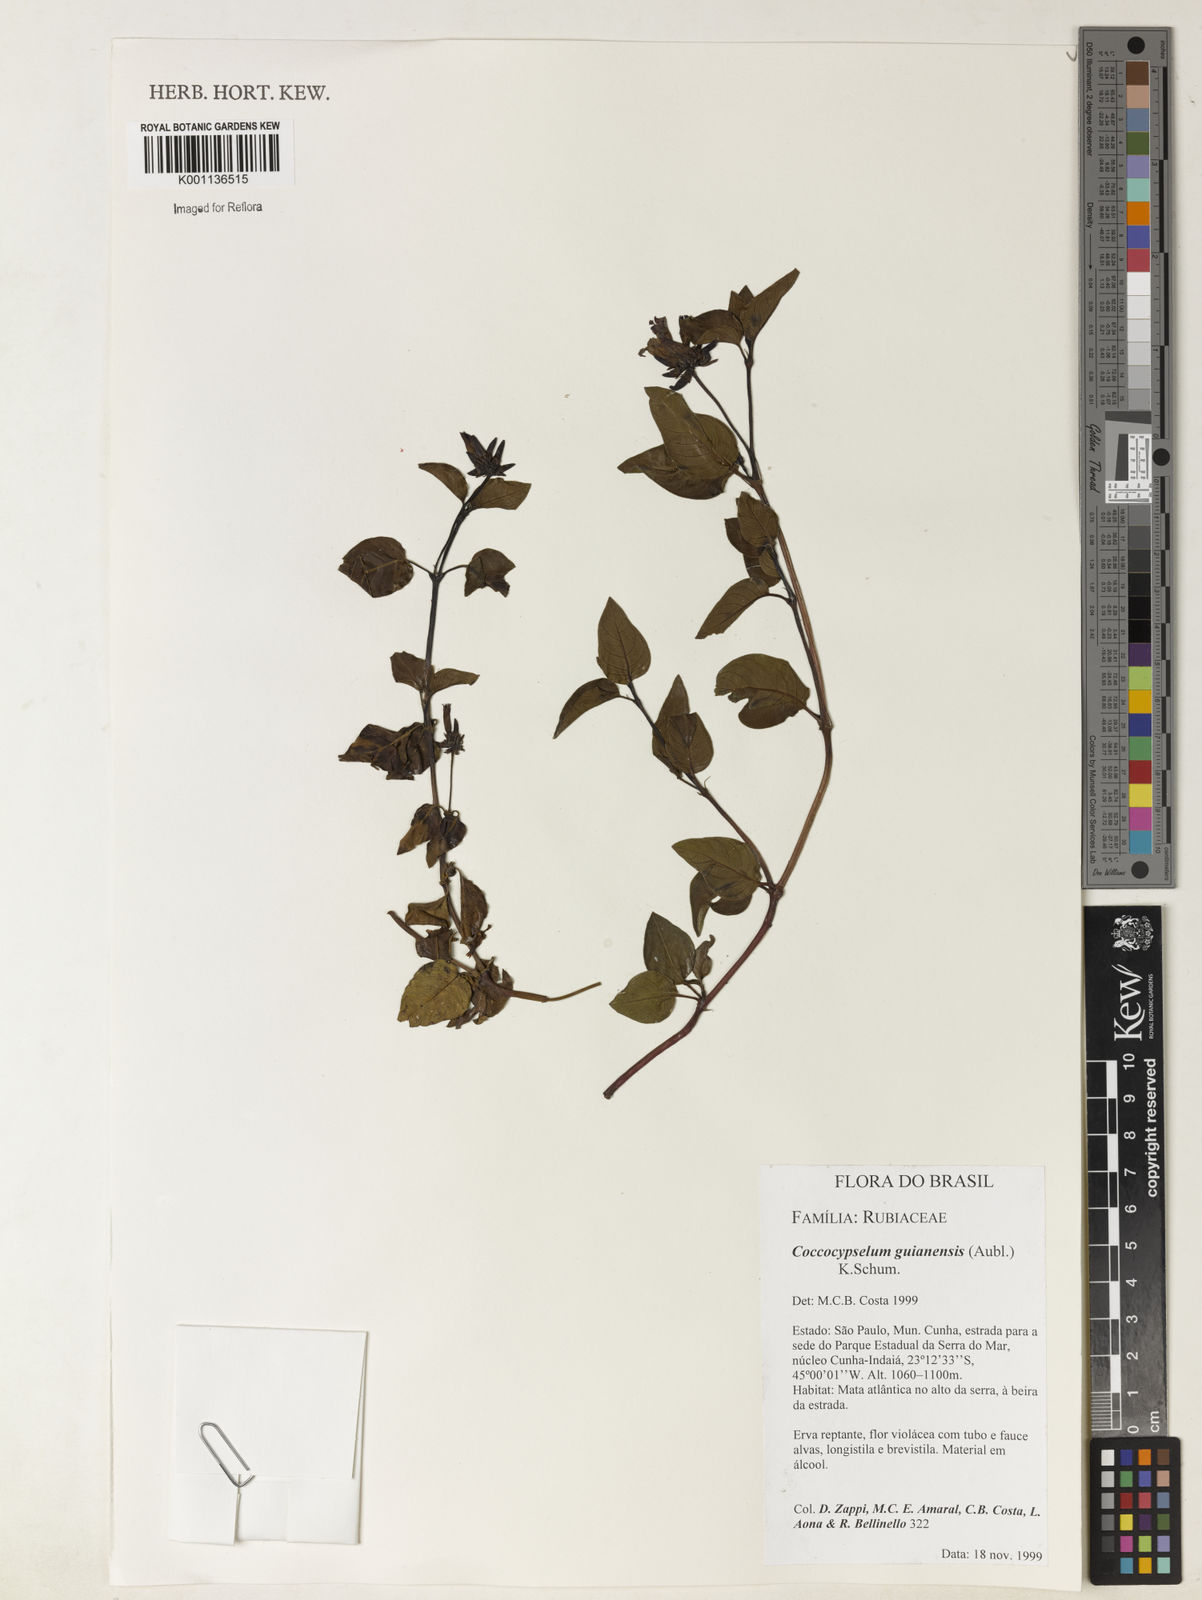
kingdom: Plantae
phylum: Tracheophyta
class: Magnoliopsida
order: Gentianales
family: Rubiaceae
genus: Coccocypselum
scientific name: Coccocypselum guianense
